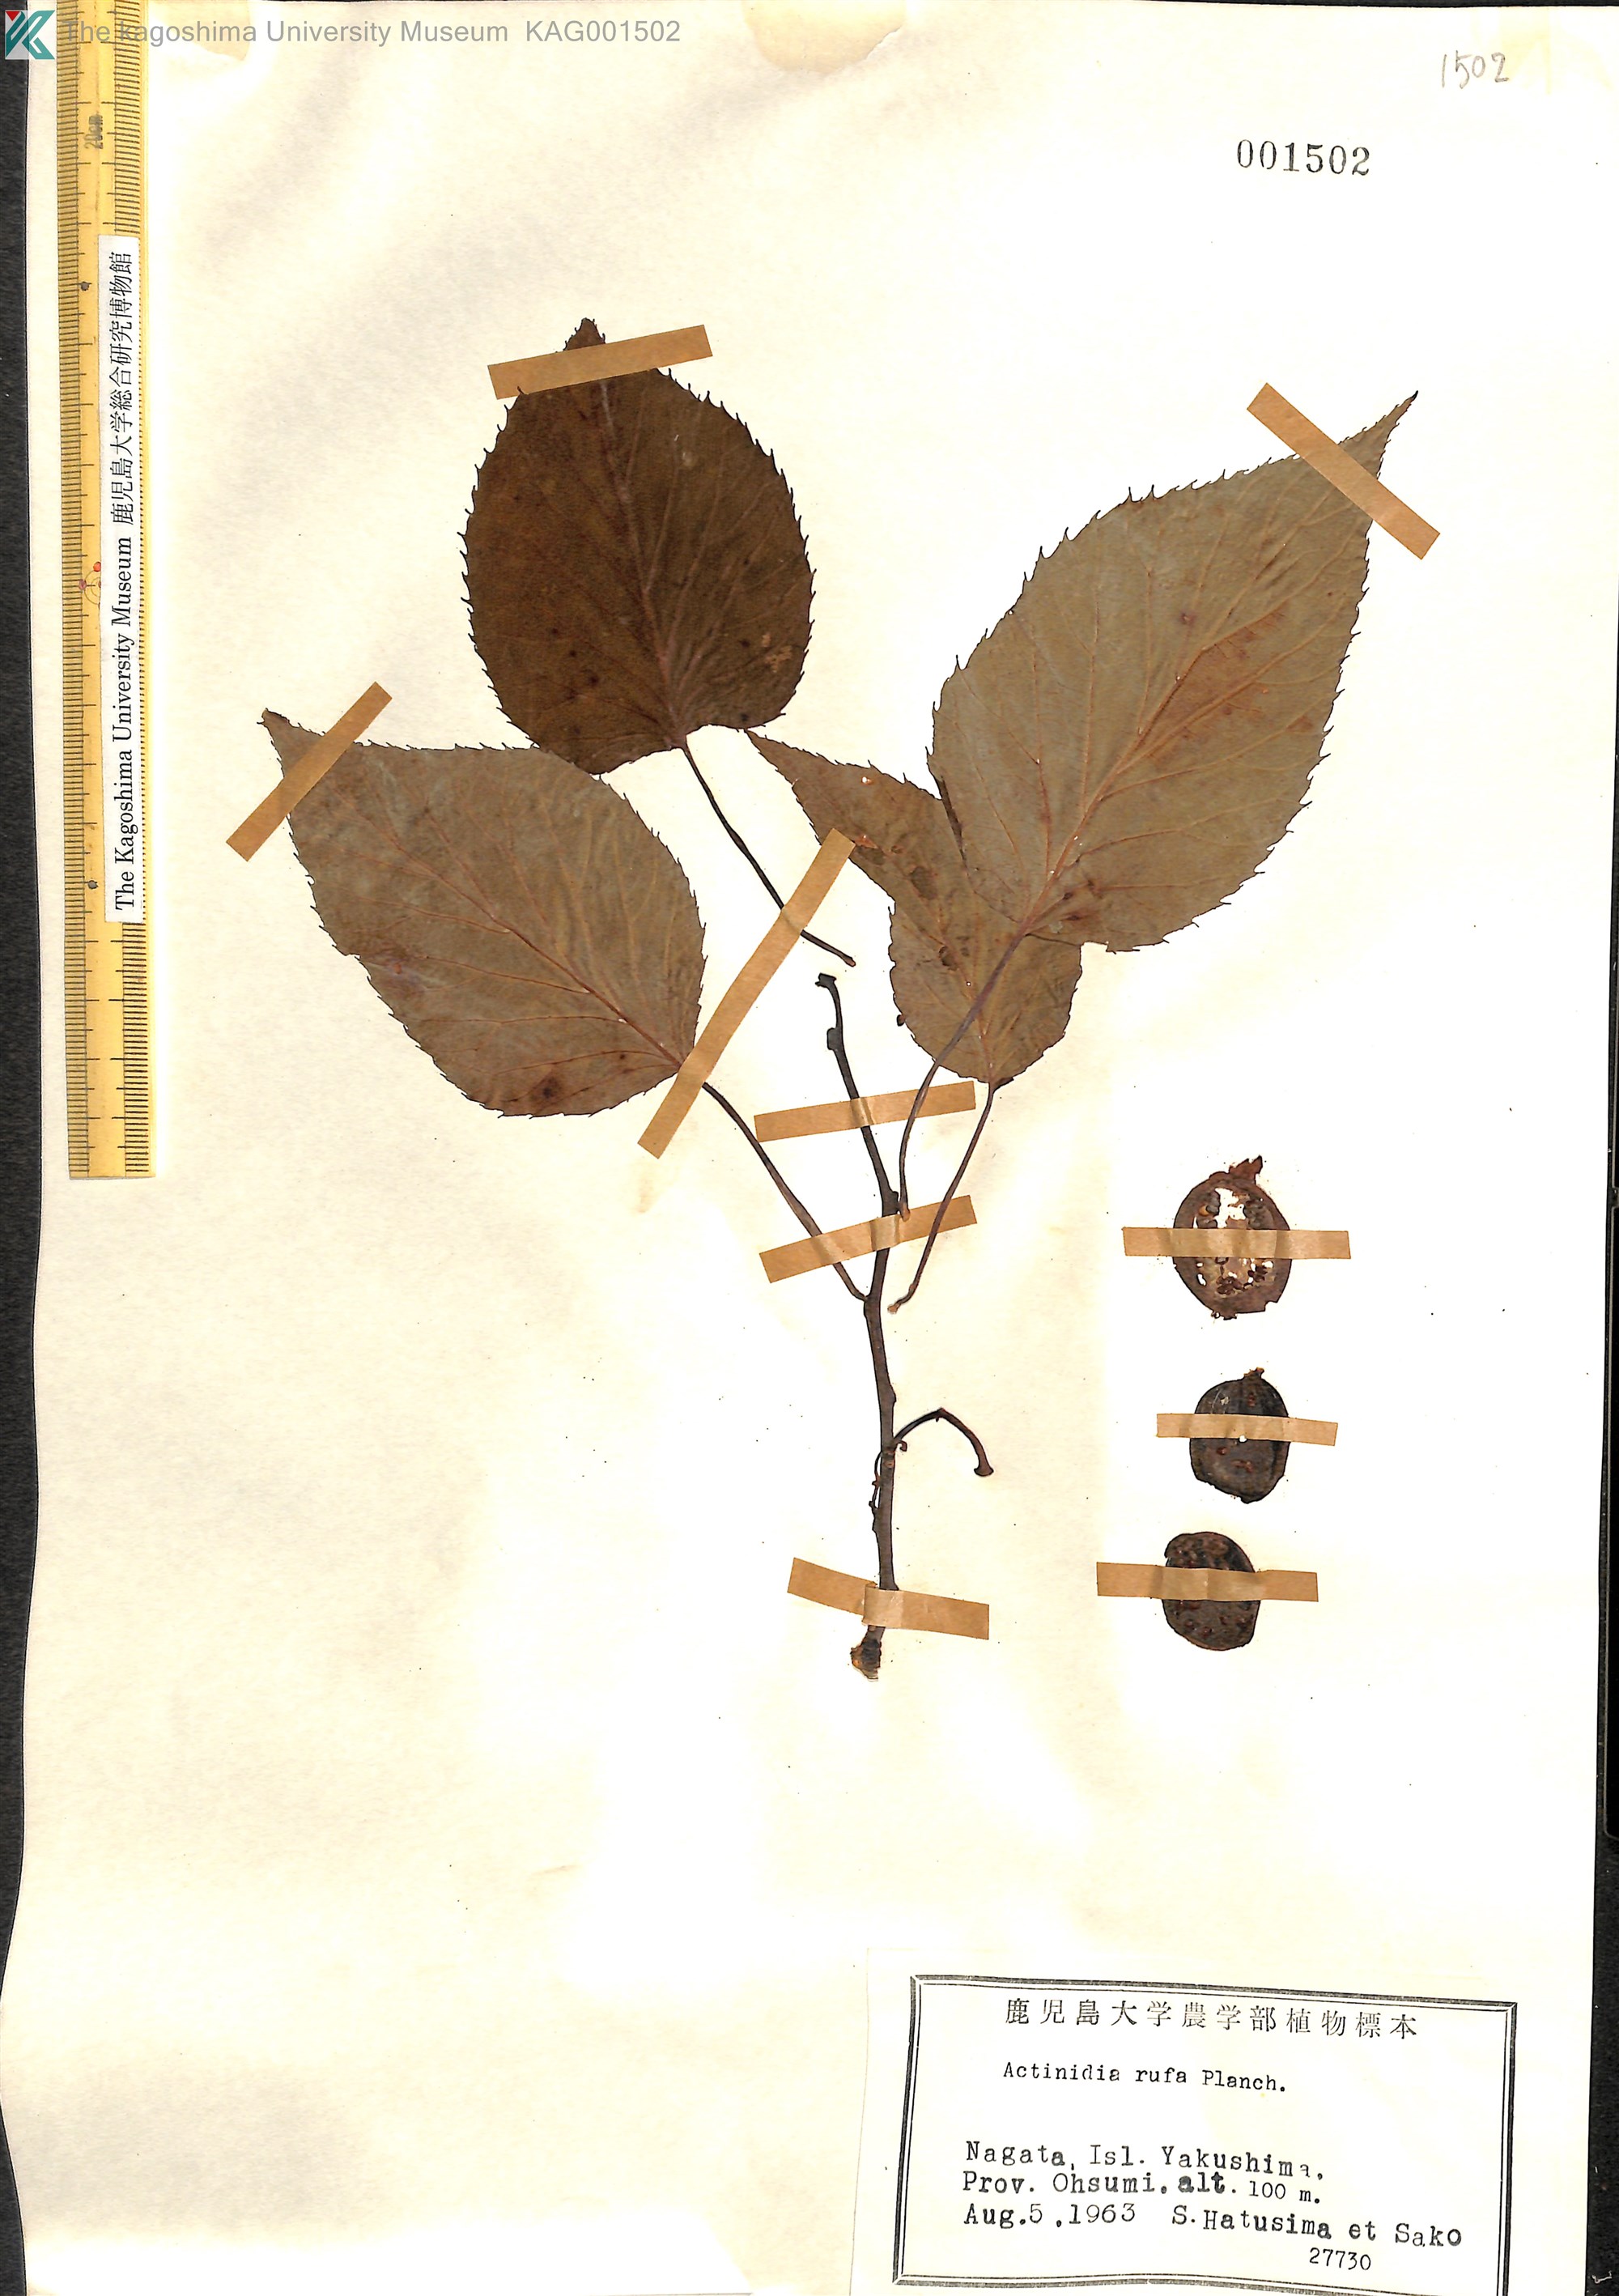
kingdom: Plantae
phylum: Tracheophyta
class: Magnoliopsida
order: Ericales
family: Actinidiaceae
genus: Actinidia
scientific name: Actinidia rufa
